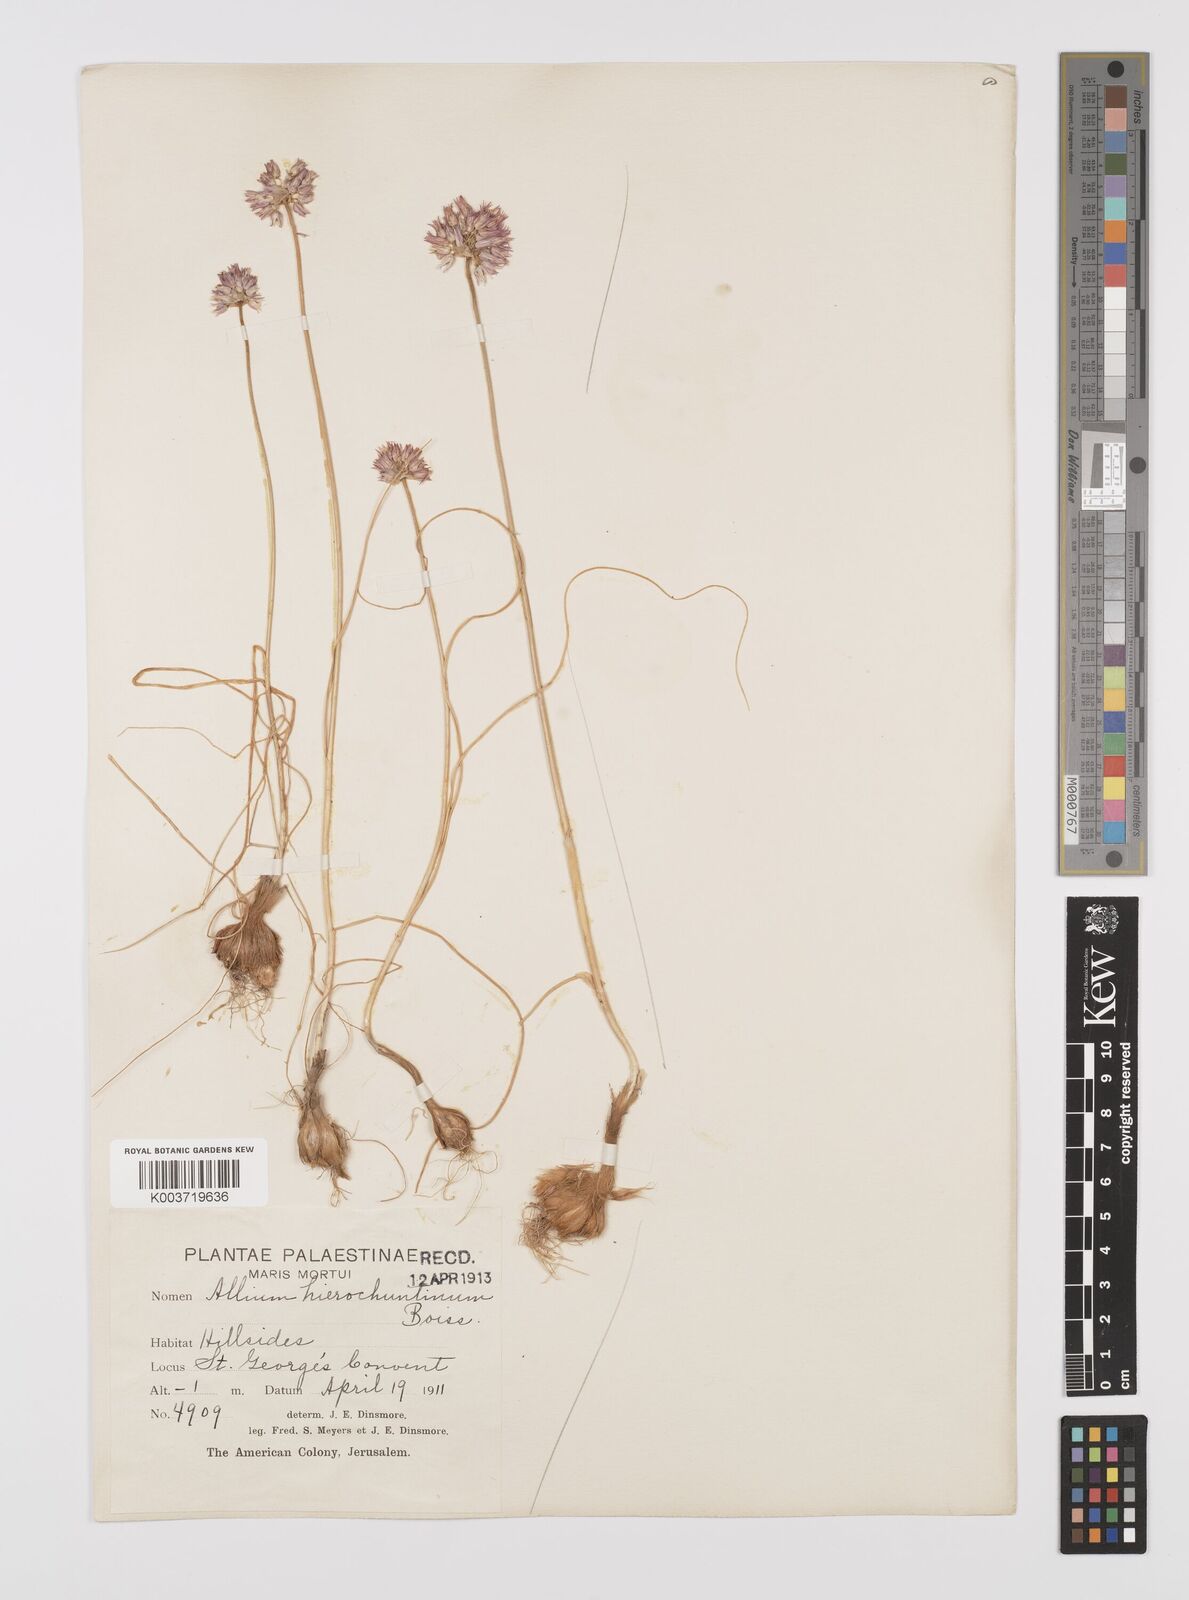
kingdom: Plantae
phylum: Tracheophyta
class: Liliopsida
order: Asparagales
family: Amaryllidaceae
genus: Allium
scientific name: Allium ascalonicum
